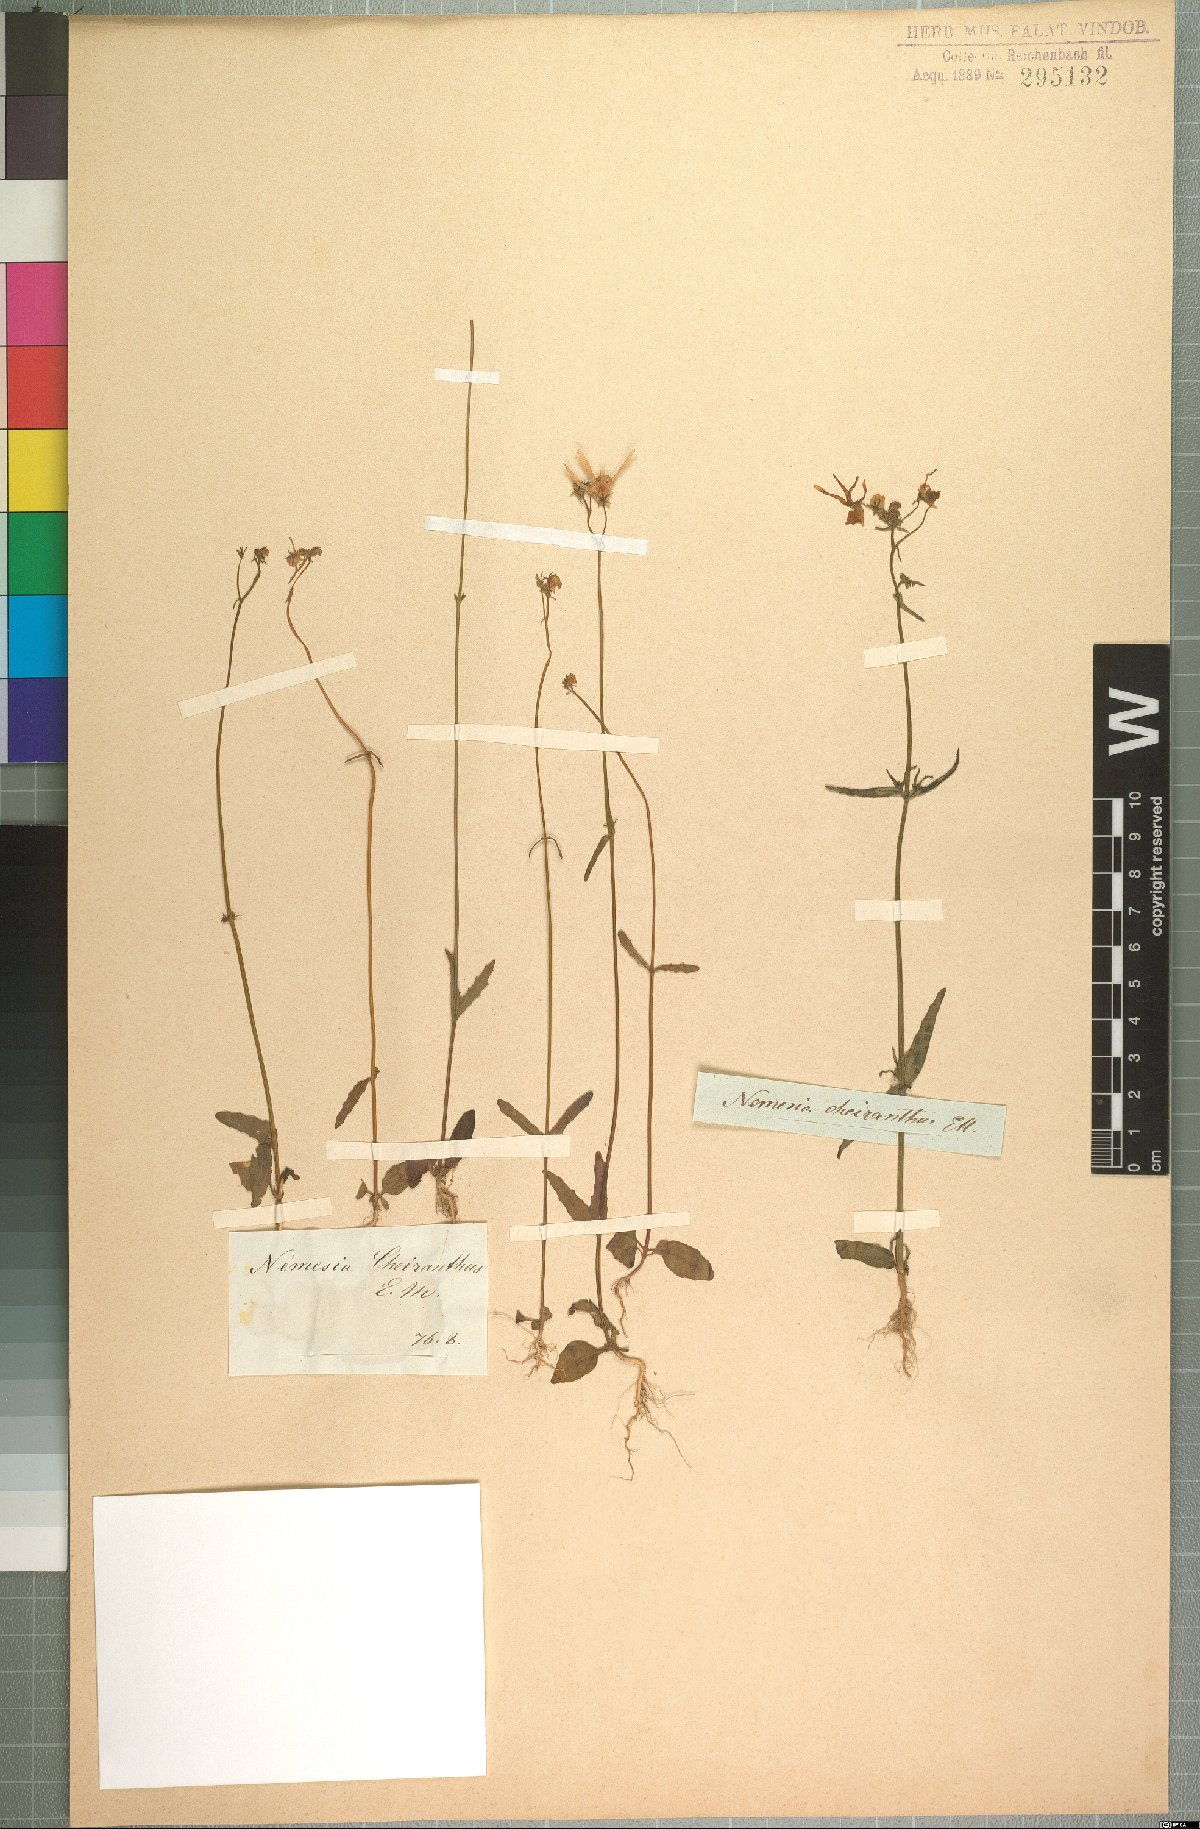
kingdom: Plantae
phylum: Tracheophyta
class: Magnoliopsida
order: Lamiales
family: Scrophulariaceae
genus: Nemesia
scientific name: Nemesia cheiranthus
